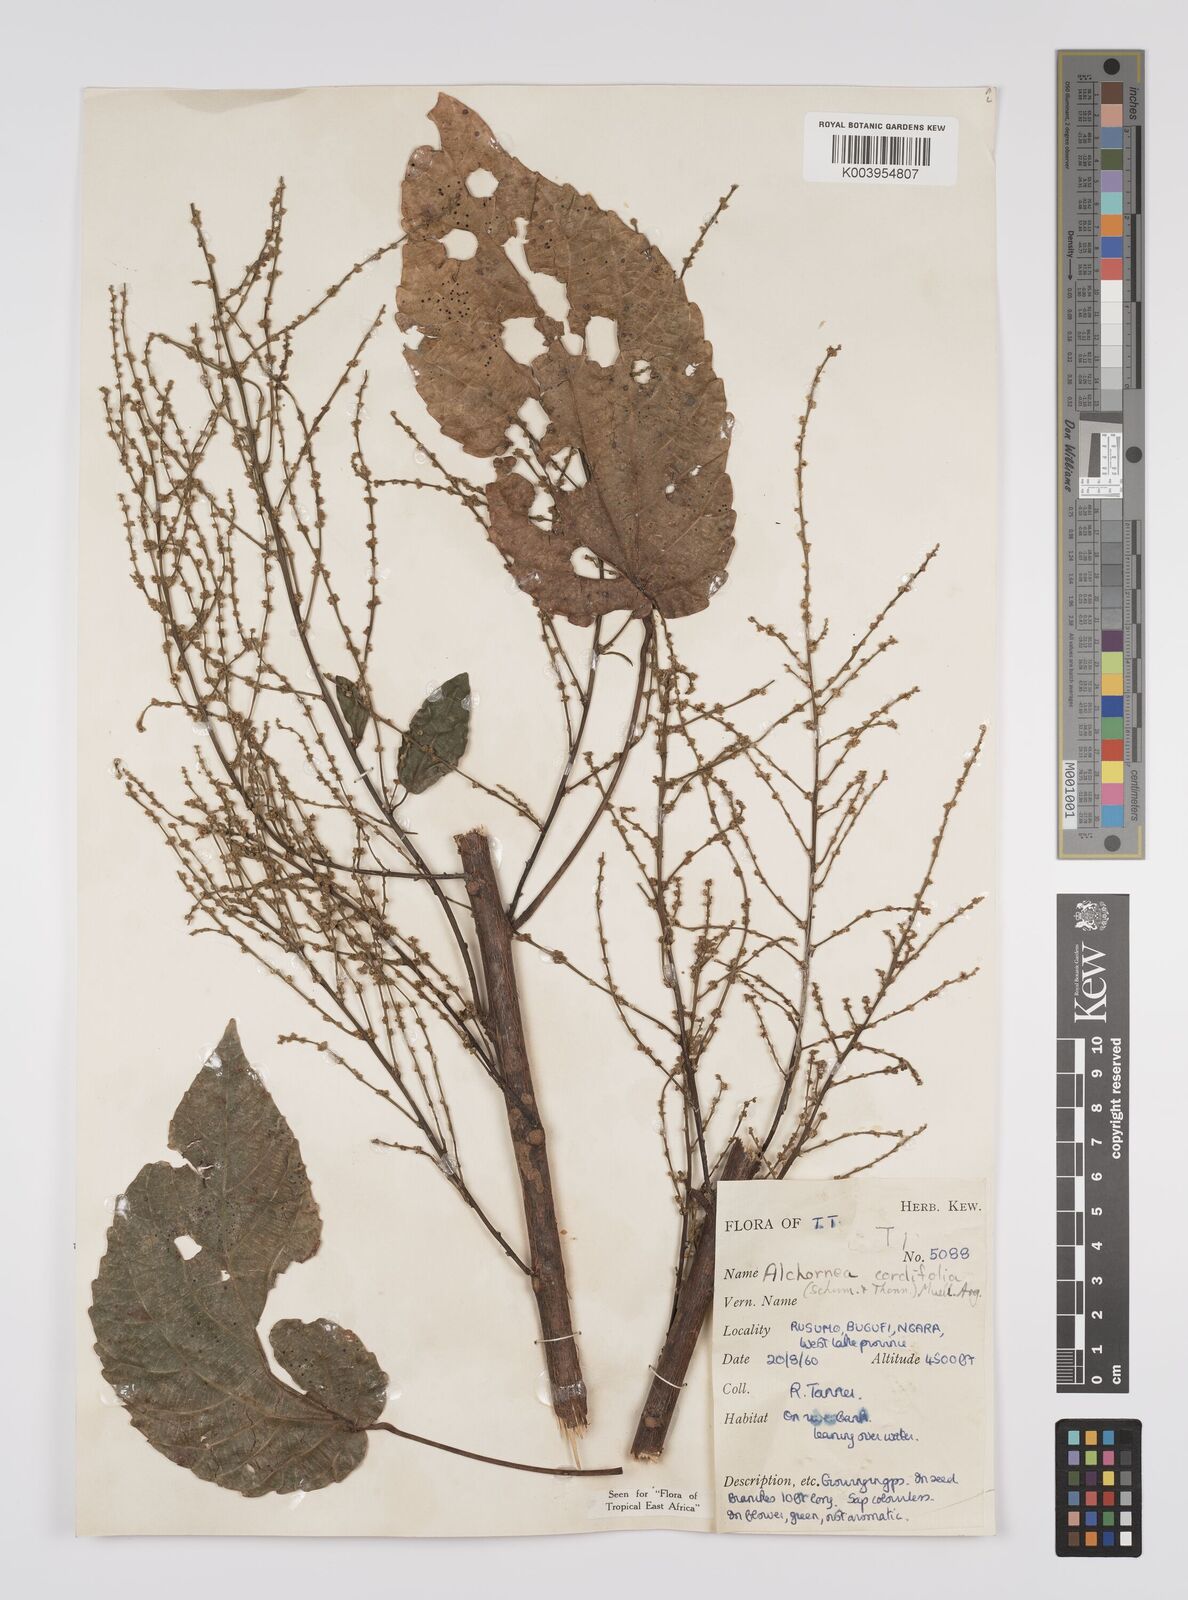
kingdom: Plantae
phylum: Tracheophyta
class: Magnoliopsida
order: Malpighiales
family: Euphorbiaceae
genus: Alchornea
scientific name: Alchornea cordifolia
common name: Christmasbush
